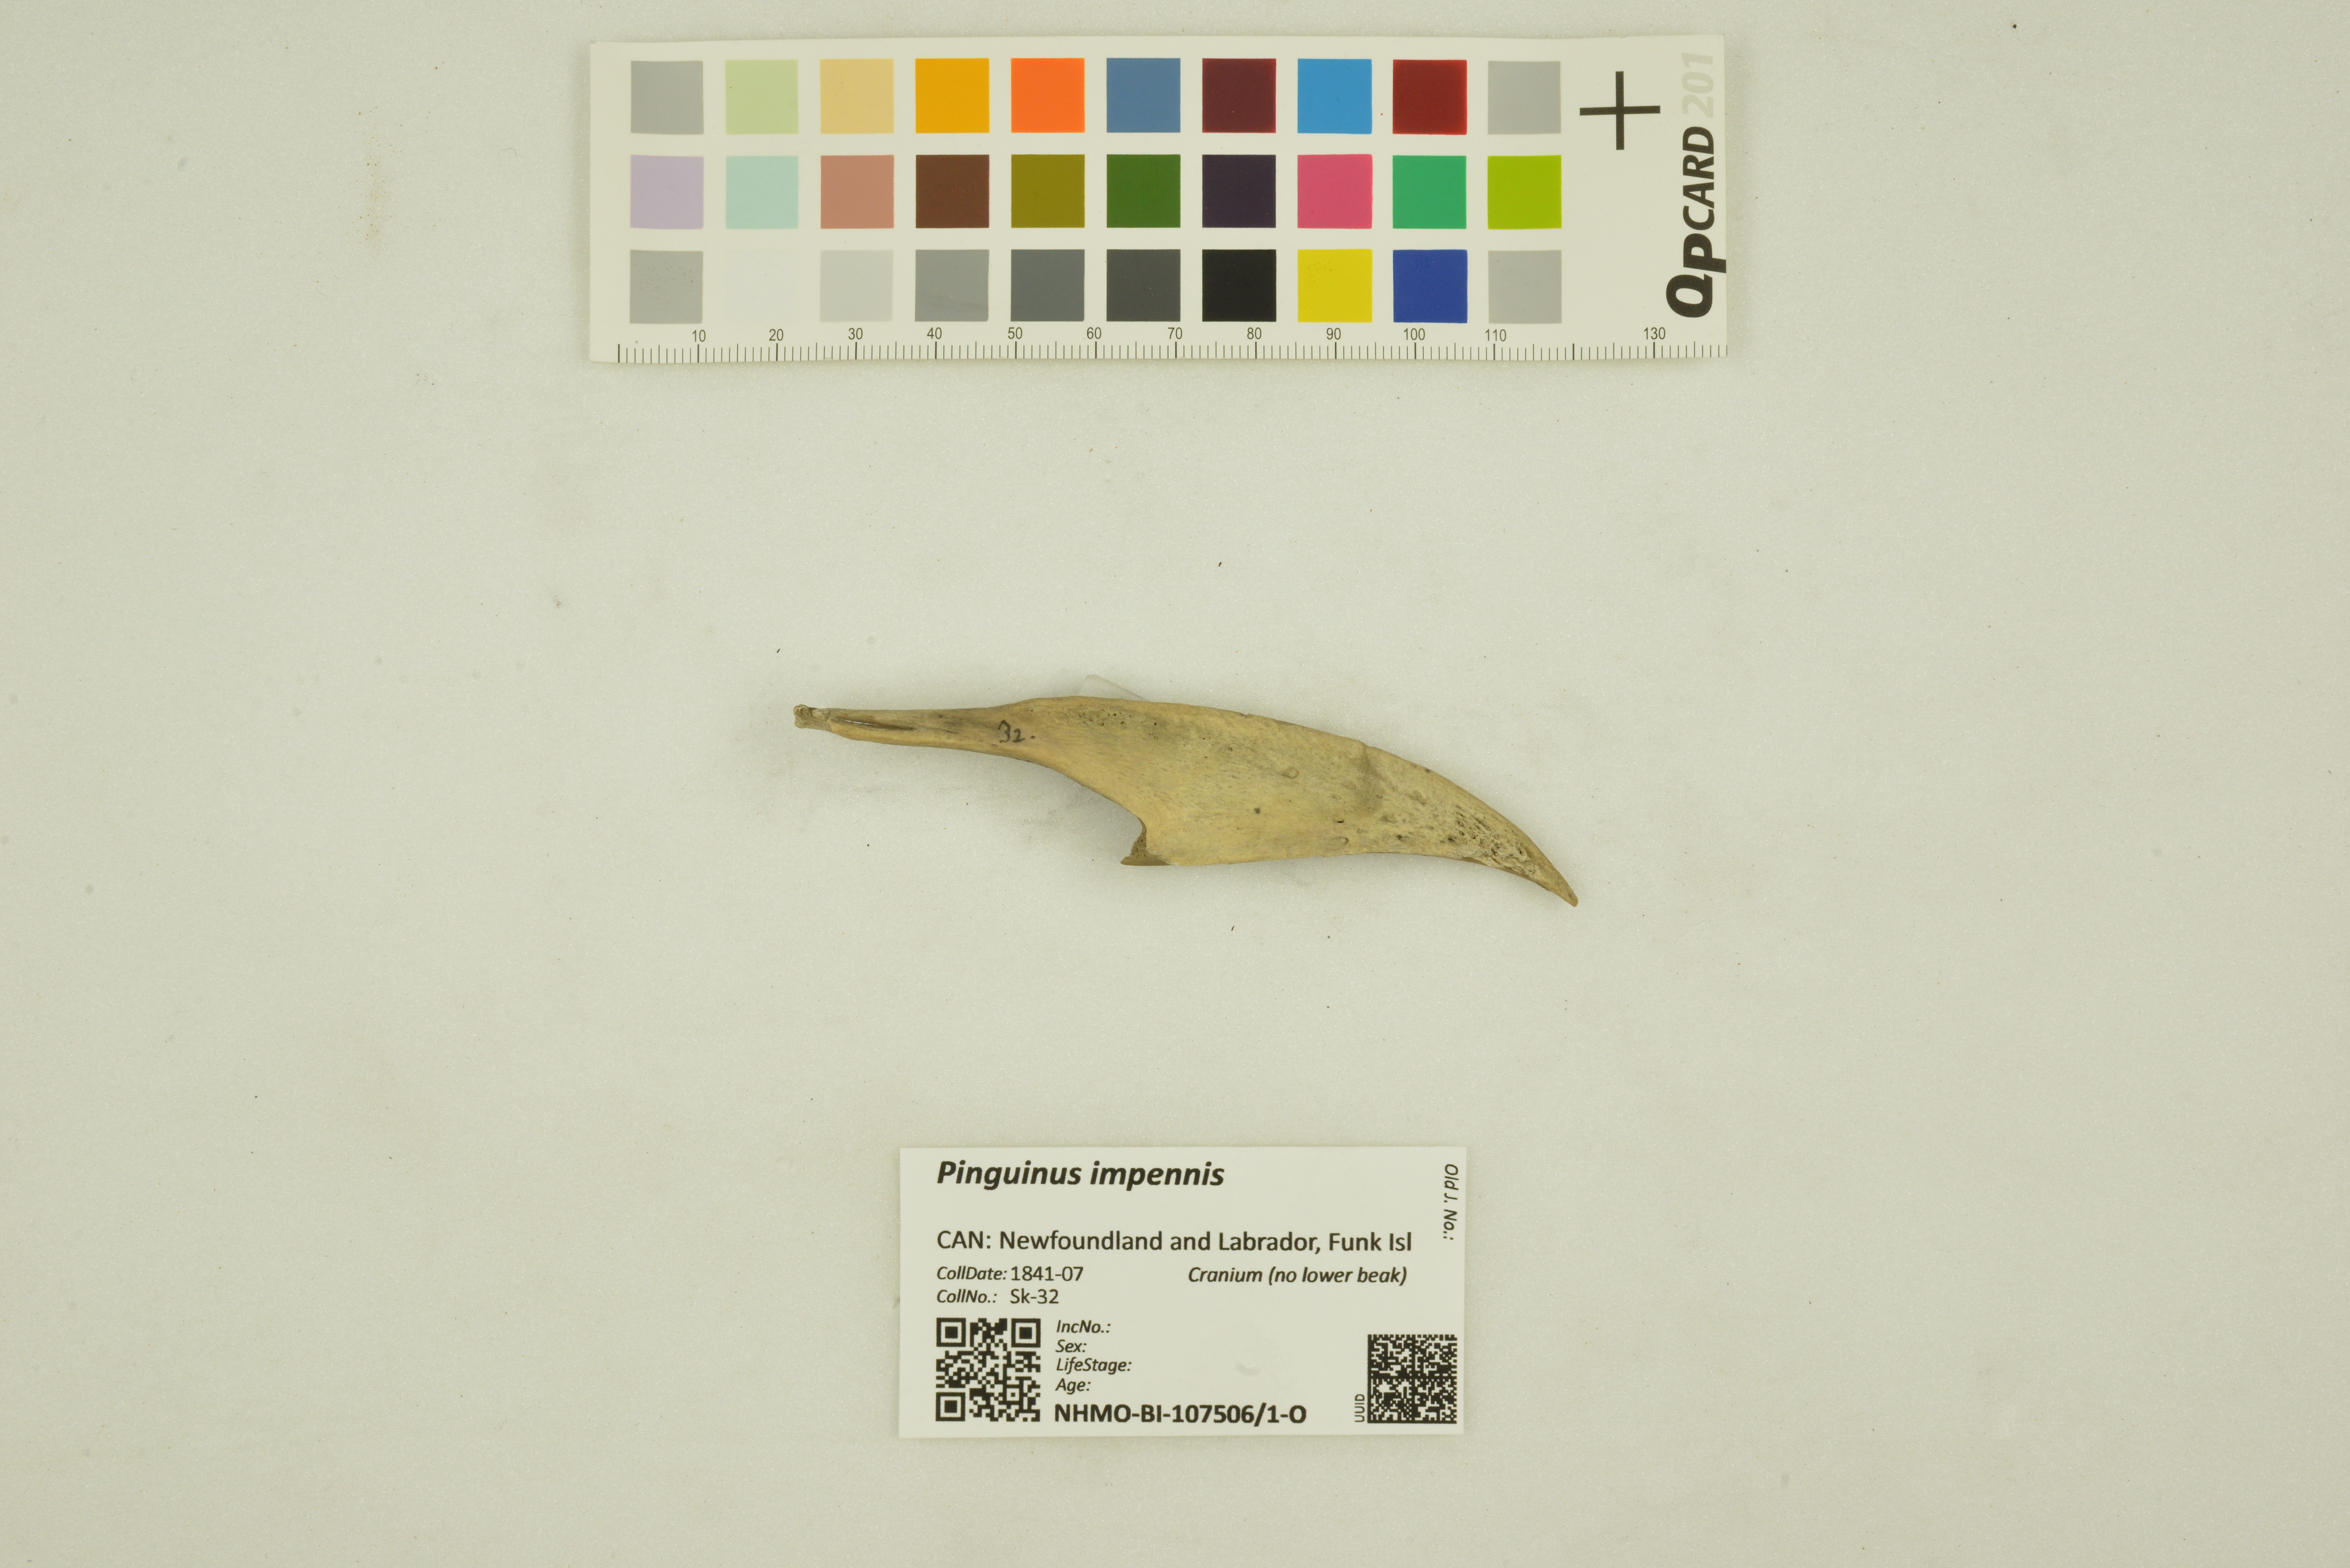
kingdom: Animalia
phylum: Chordata
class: Aves
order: Charadriiformes
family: Alcidae
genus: Pinguinus
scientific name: Pinguinus impennis
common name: Great auk
